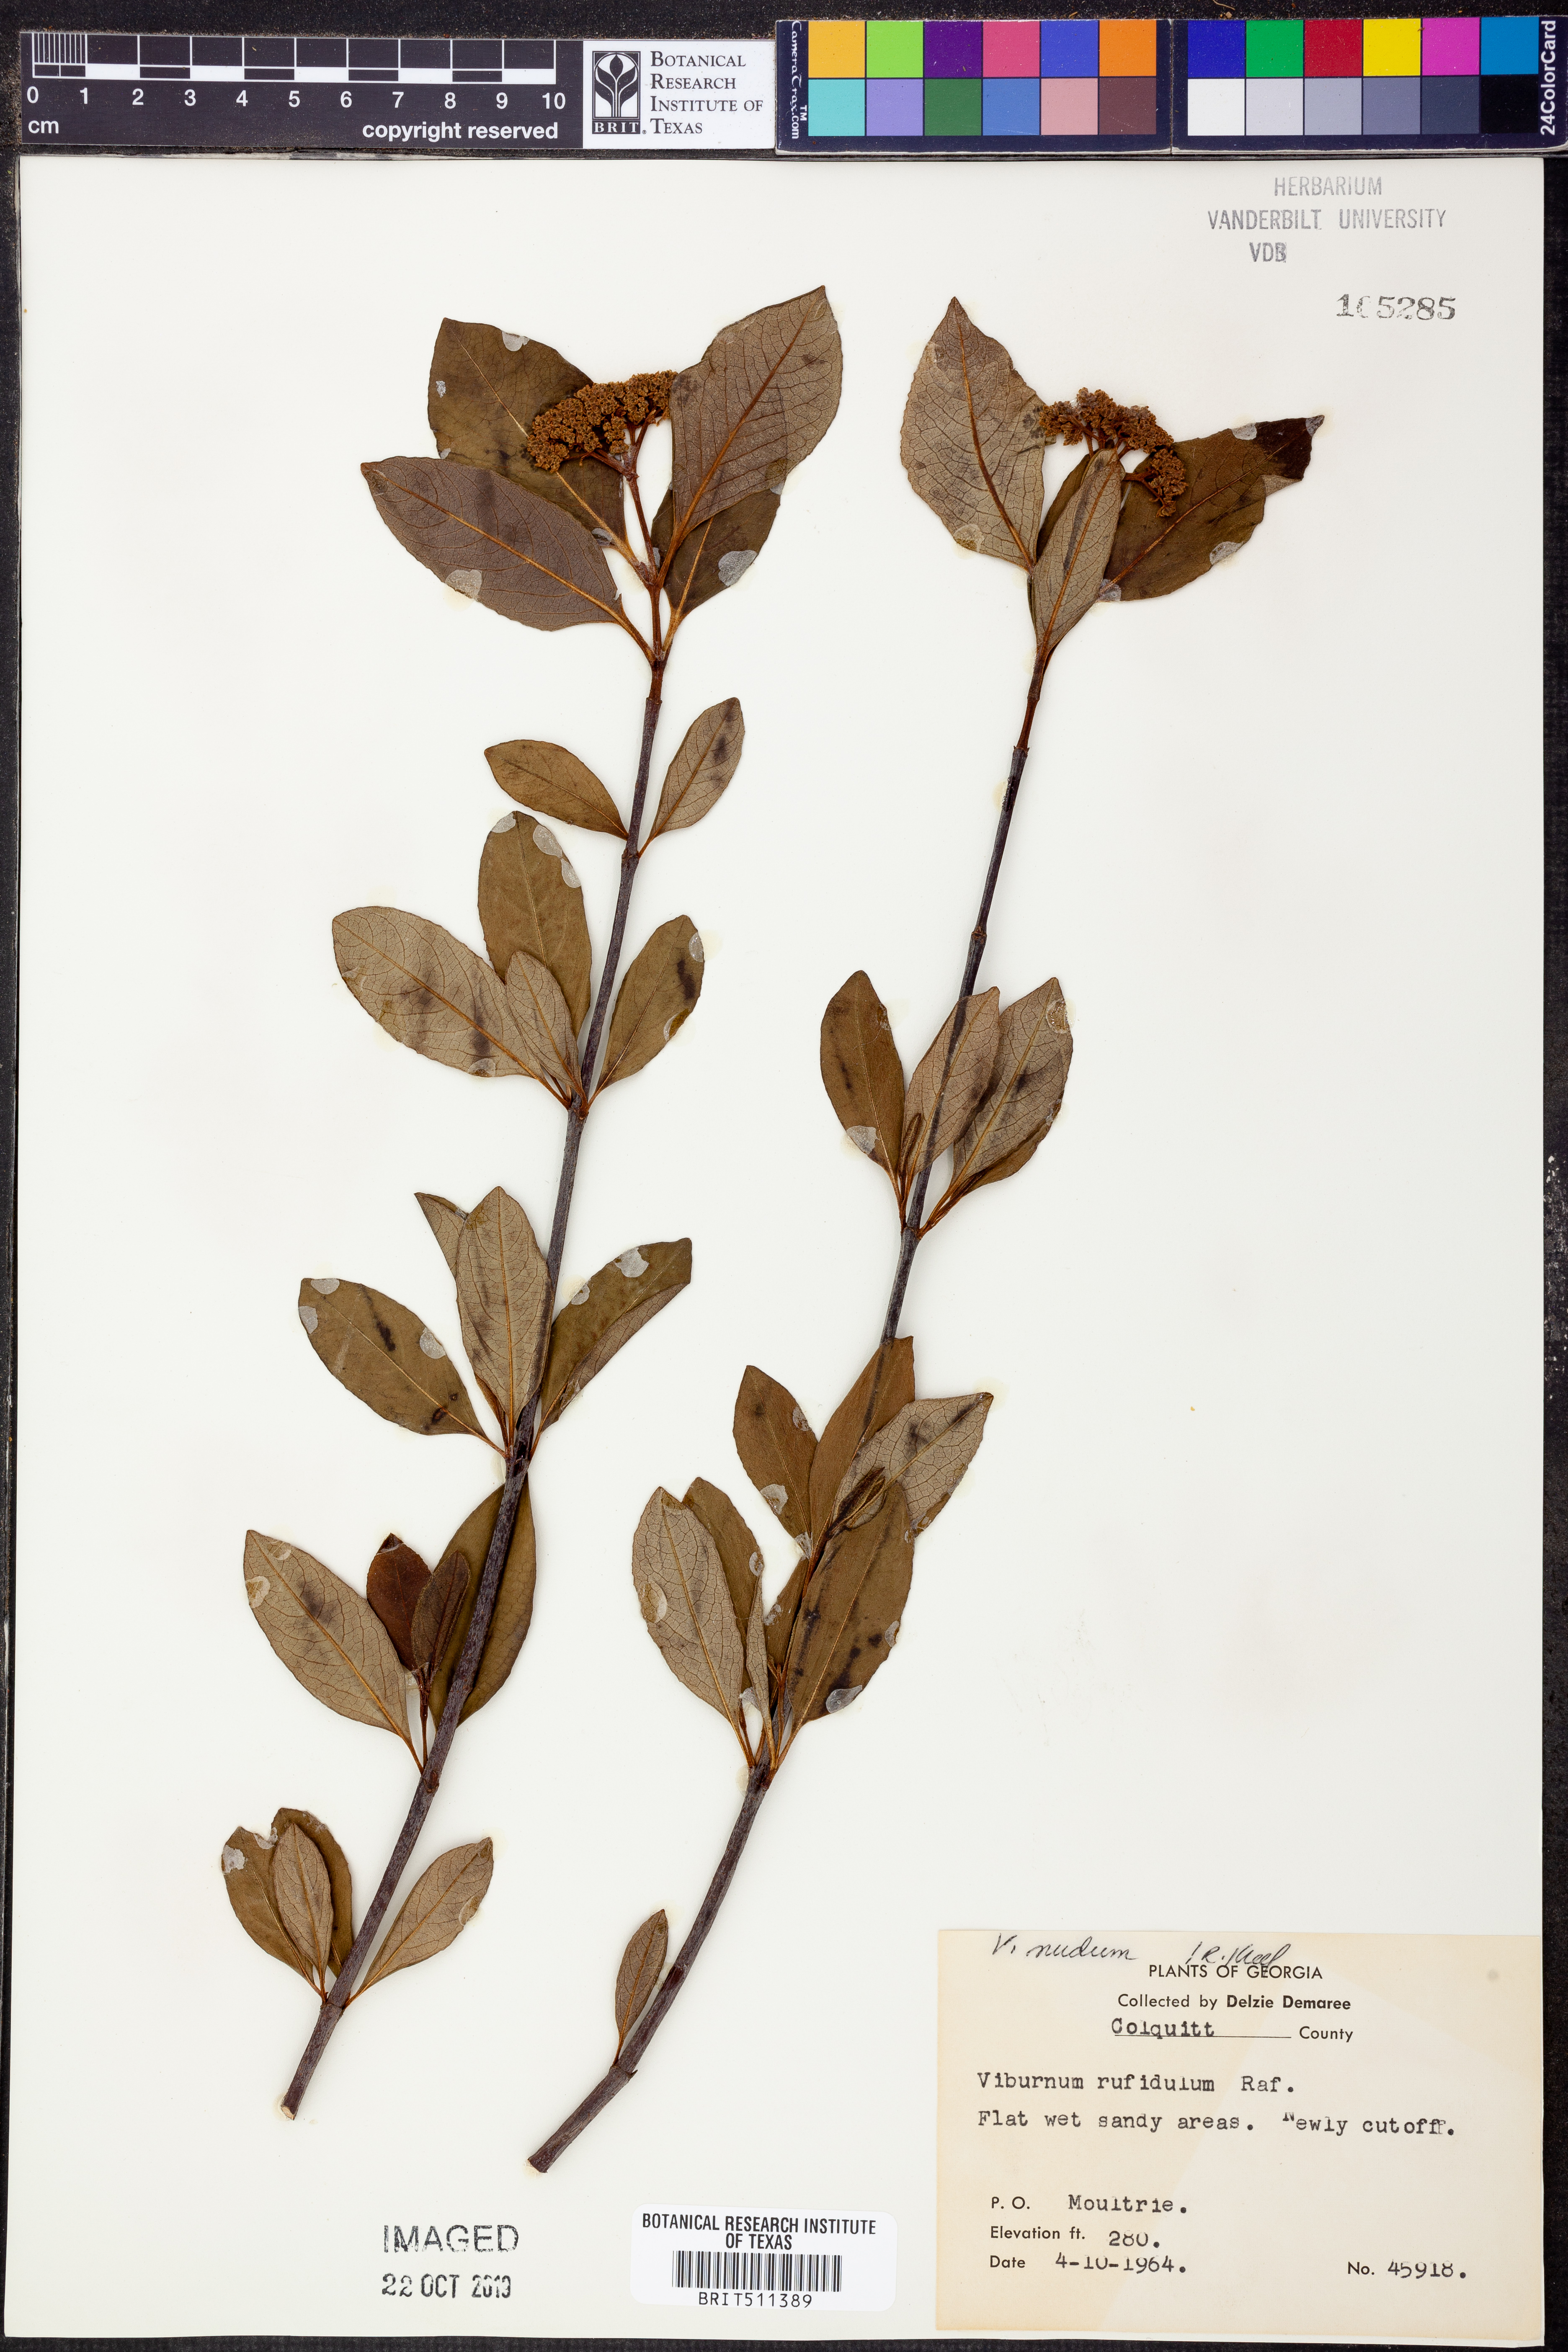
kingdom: Plantae
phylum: Tracheophyta
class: Magnoliopsida
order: Dipsacales
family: Viburnaceae
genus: Viburnum
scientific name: Viburnum nudum
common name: Possum haw
